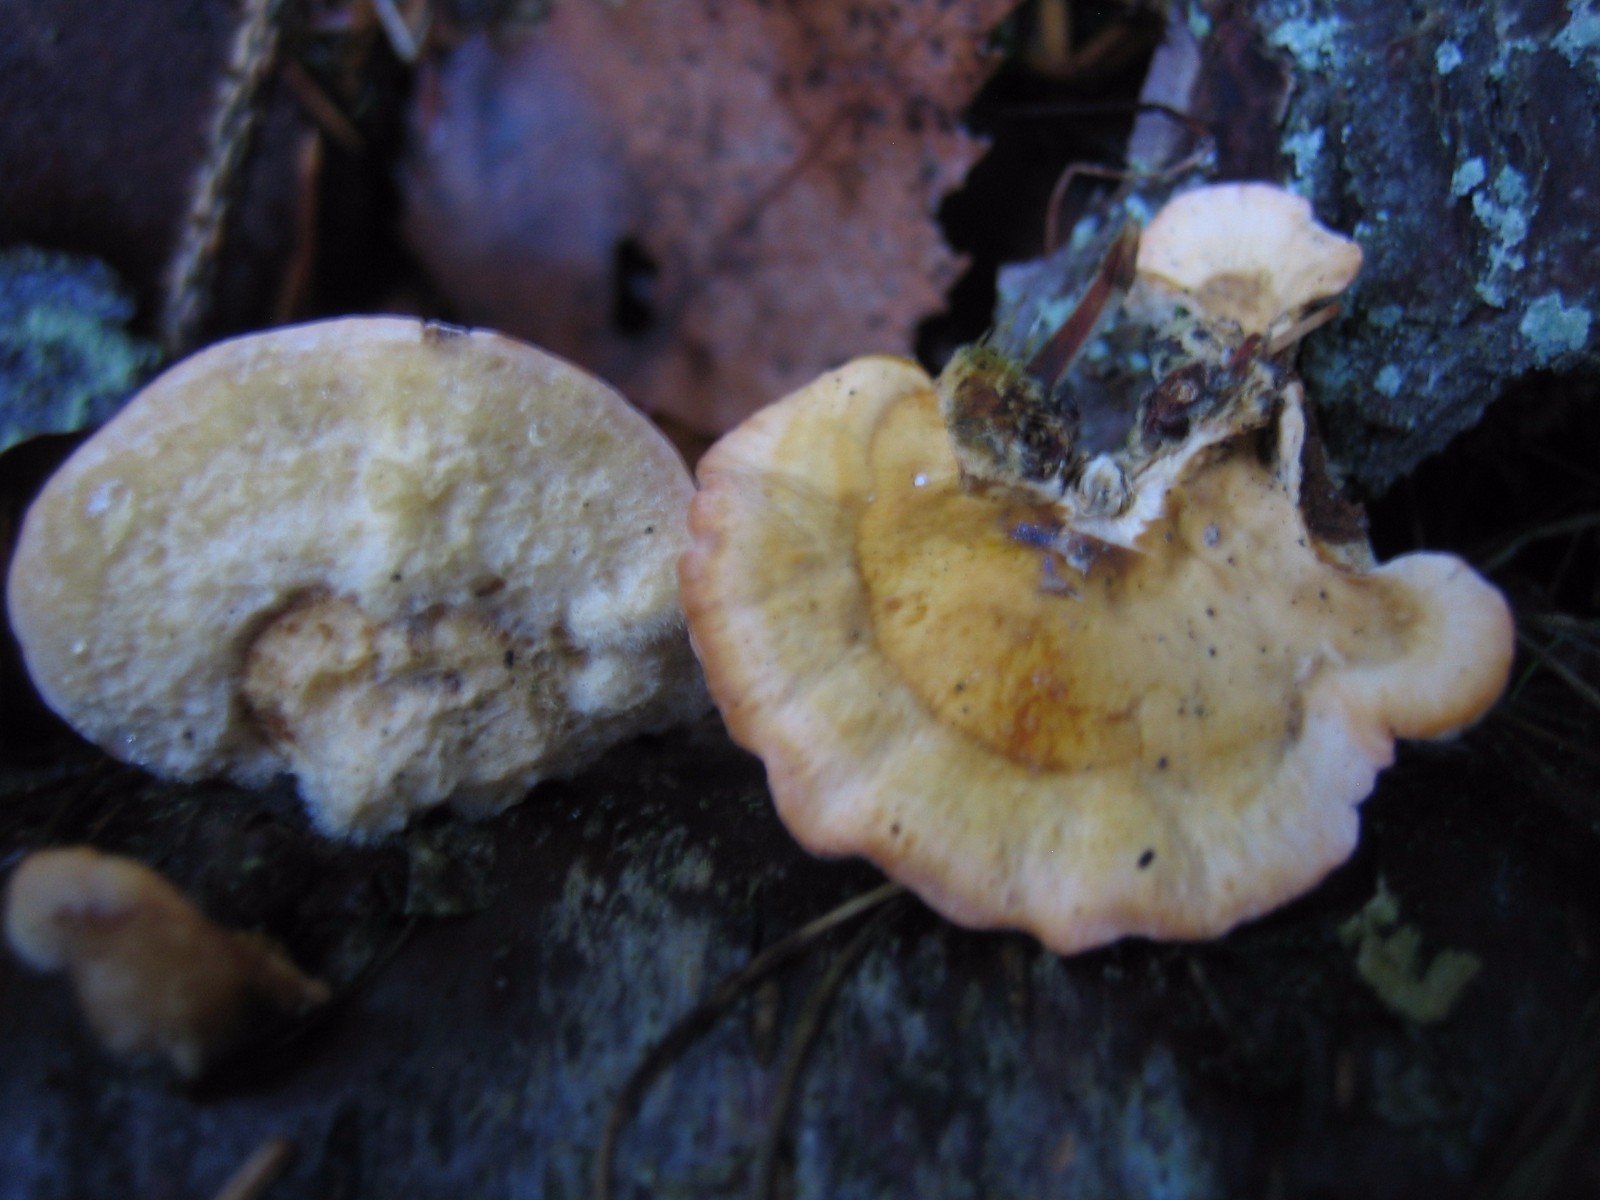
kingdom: Fungi
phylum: Basidiomycota
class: Agaricomycetes
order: Russulales
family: Stereaceae
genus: Stereum
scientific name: Stereum hirsutum
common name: håret lædersvamp
